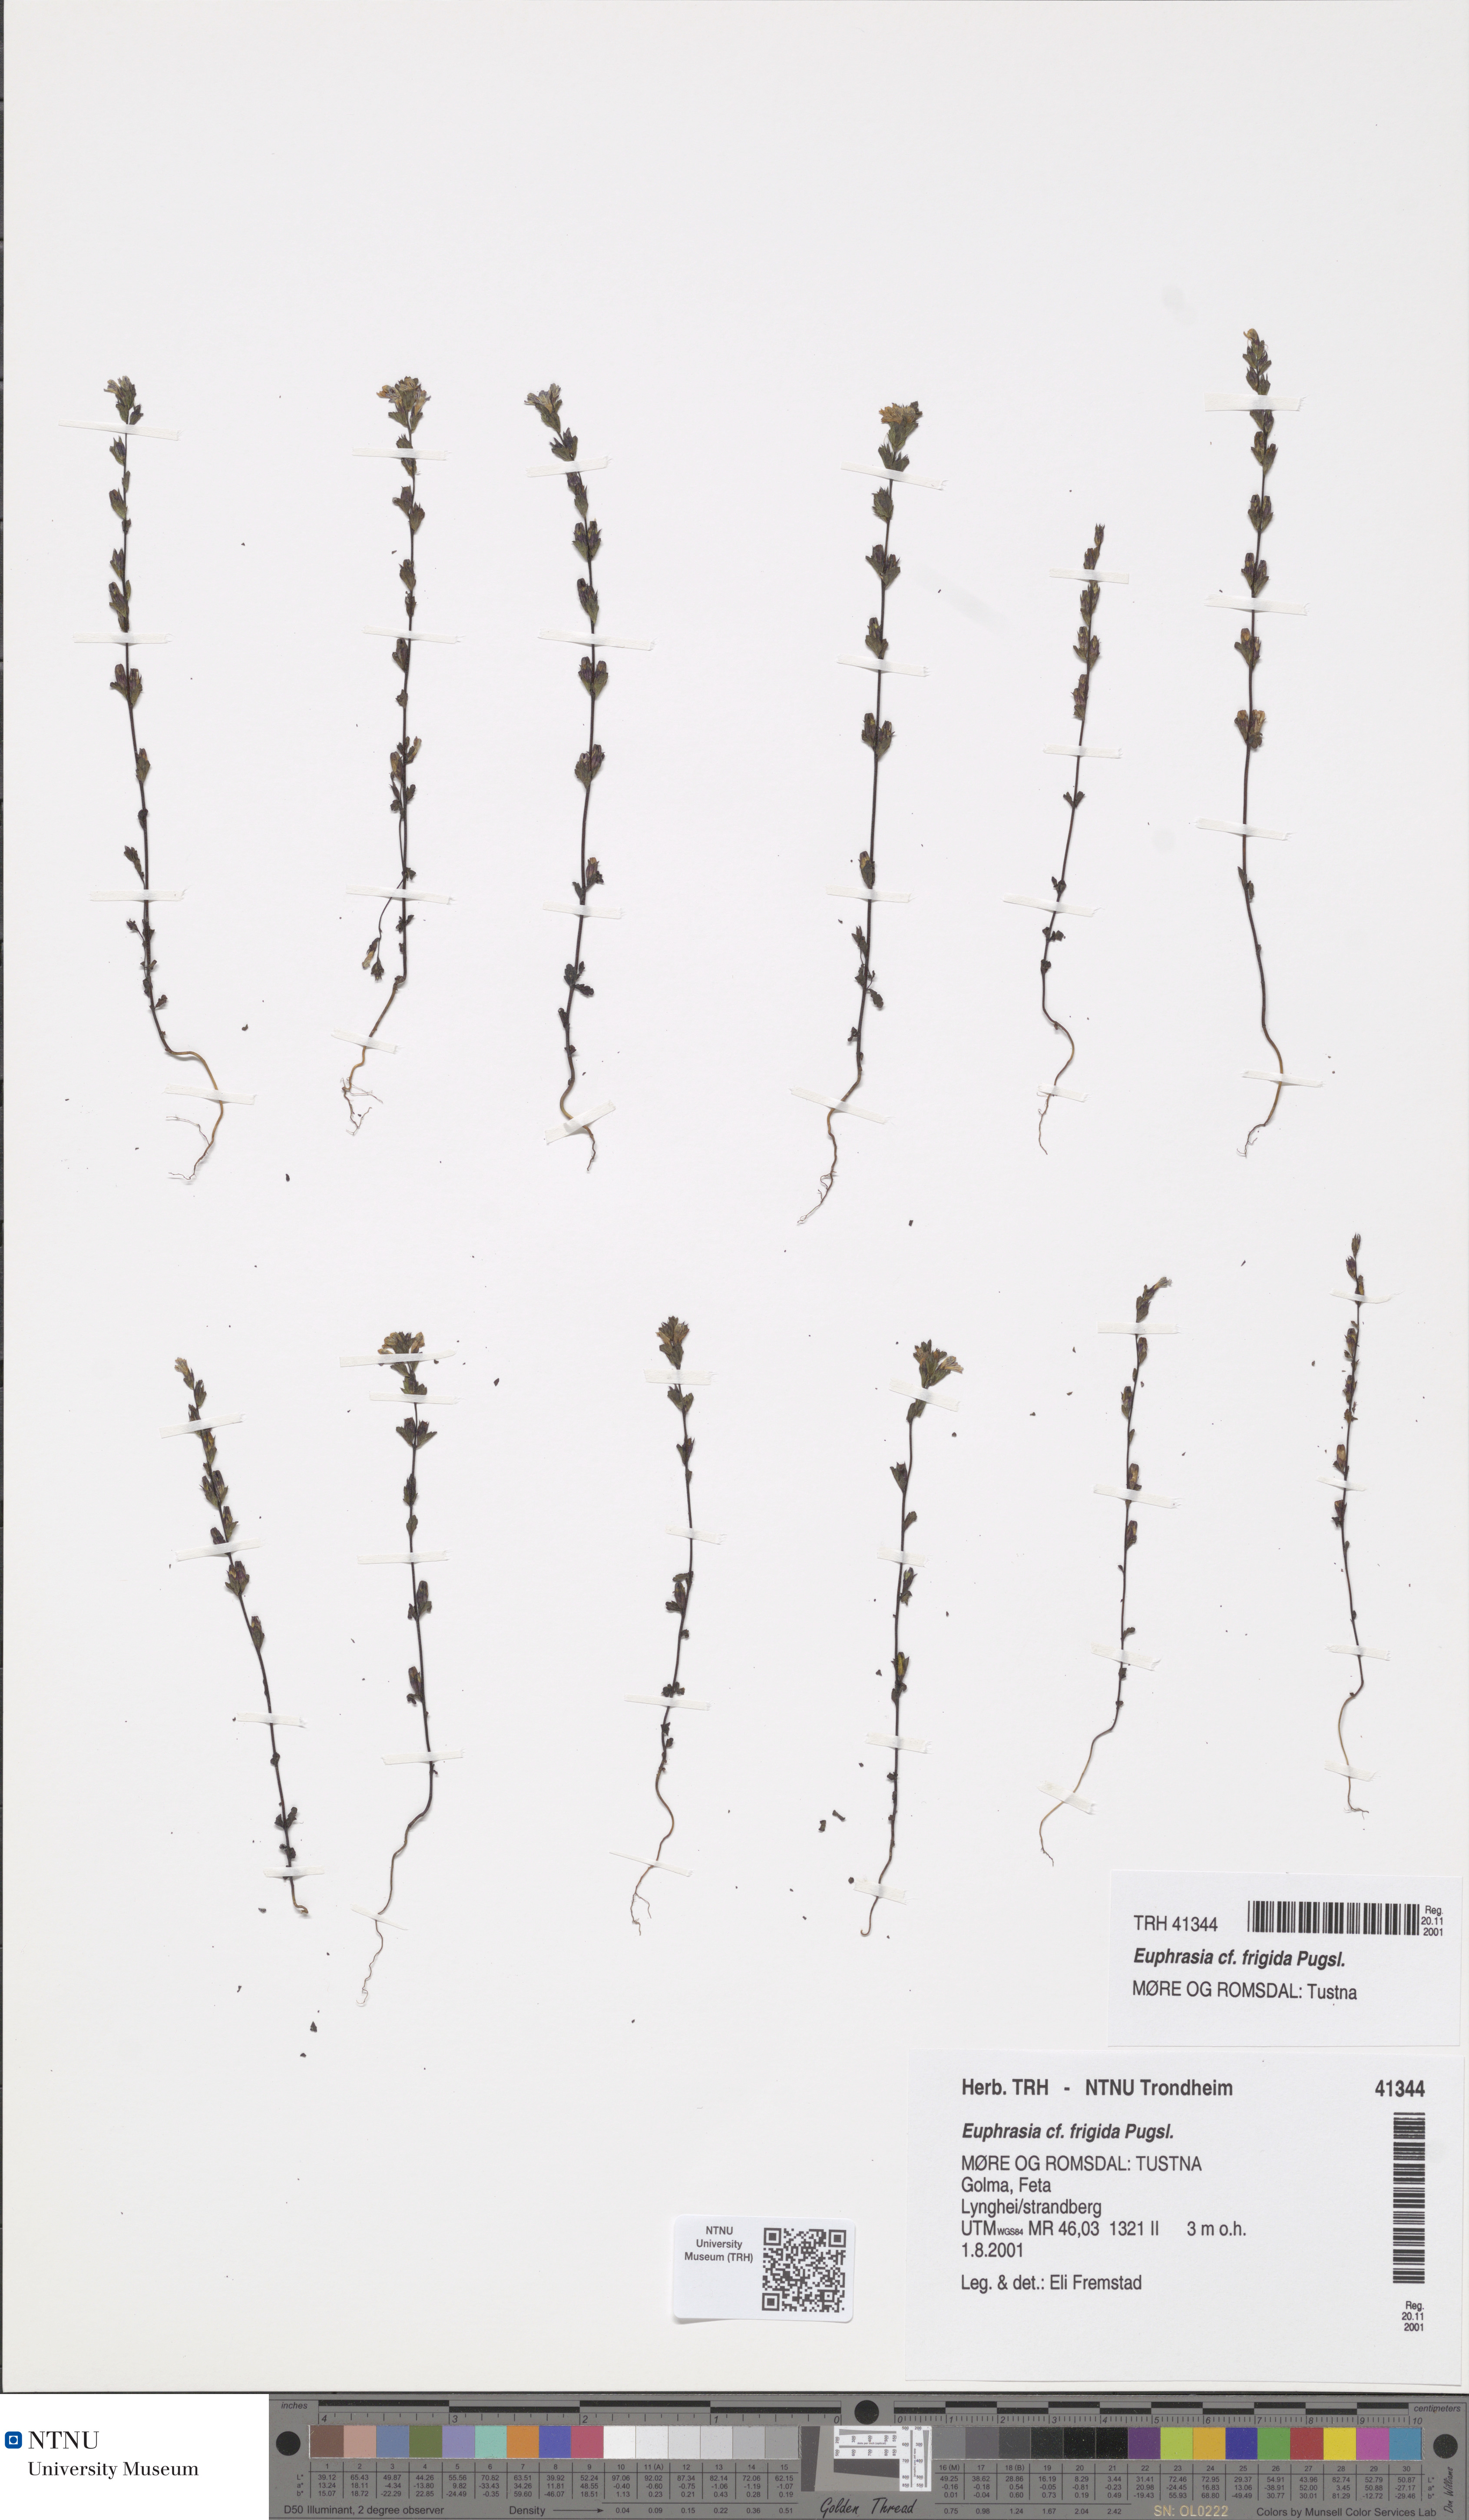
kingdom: Plantae
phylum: Tracheophyta
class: Magnoliopsida
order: Lamiales
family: Orobanchaceae
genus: Euphrasia
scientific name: Euphrasia wettsteinii
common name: Wettstein's eyebright
